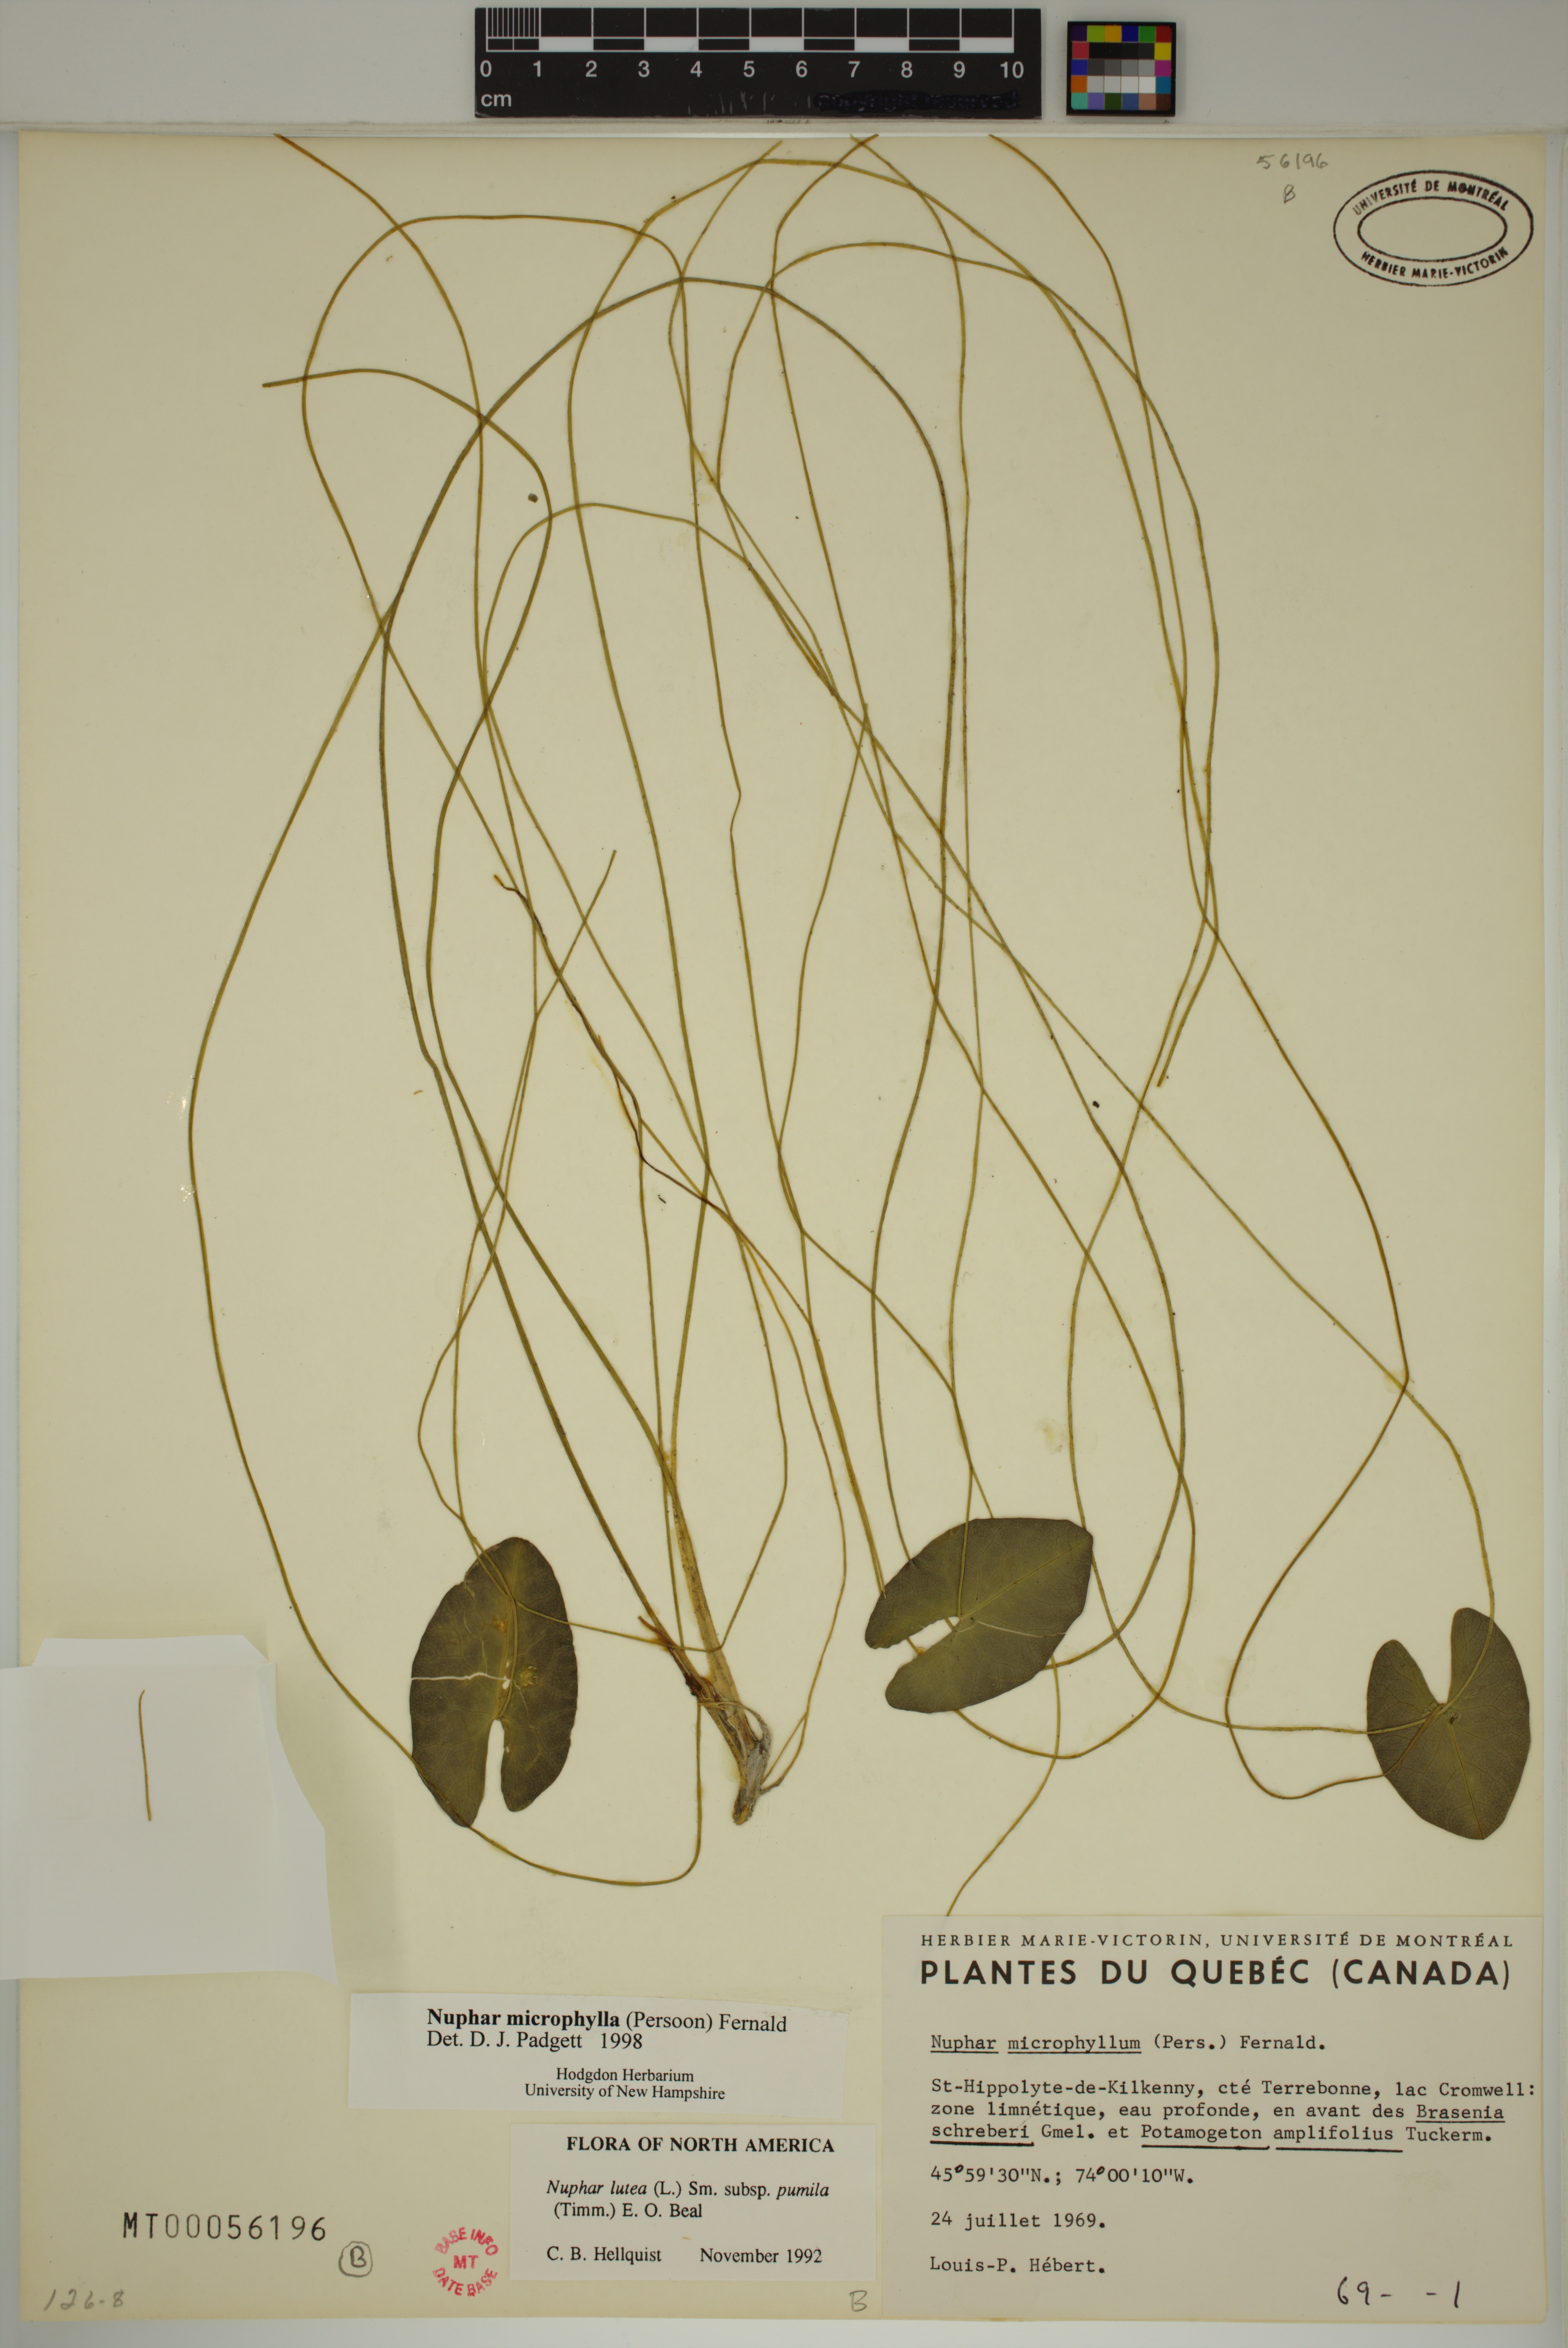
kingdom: Plantae
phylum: Tracheophyta
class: Magnoliopsida
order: Nymphaeales
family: Nymphaeaceae
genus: Nuphar
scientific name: Nuphar microphylla
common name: Small pond-lily
